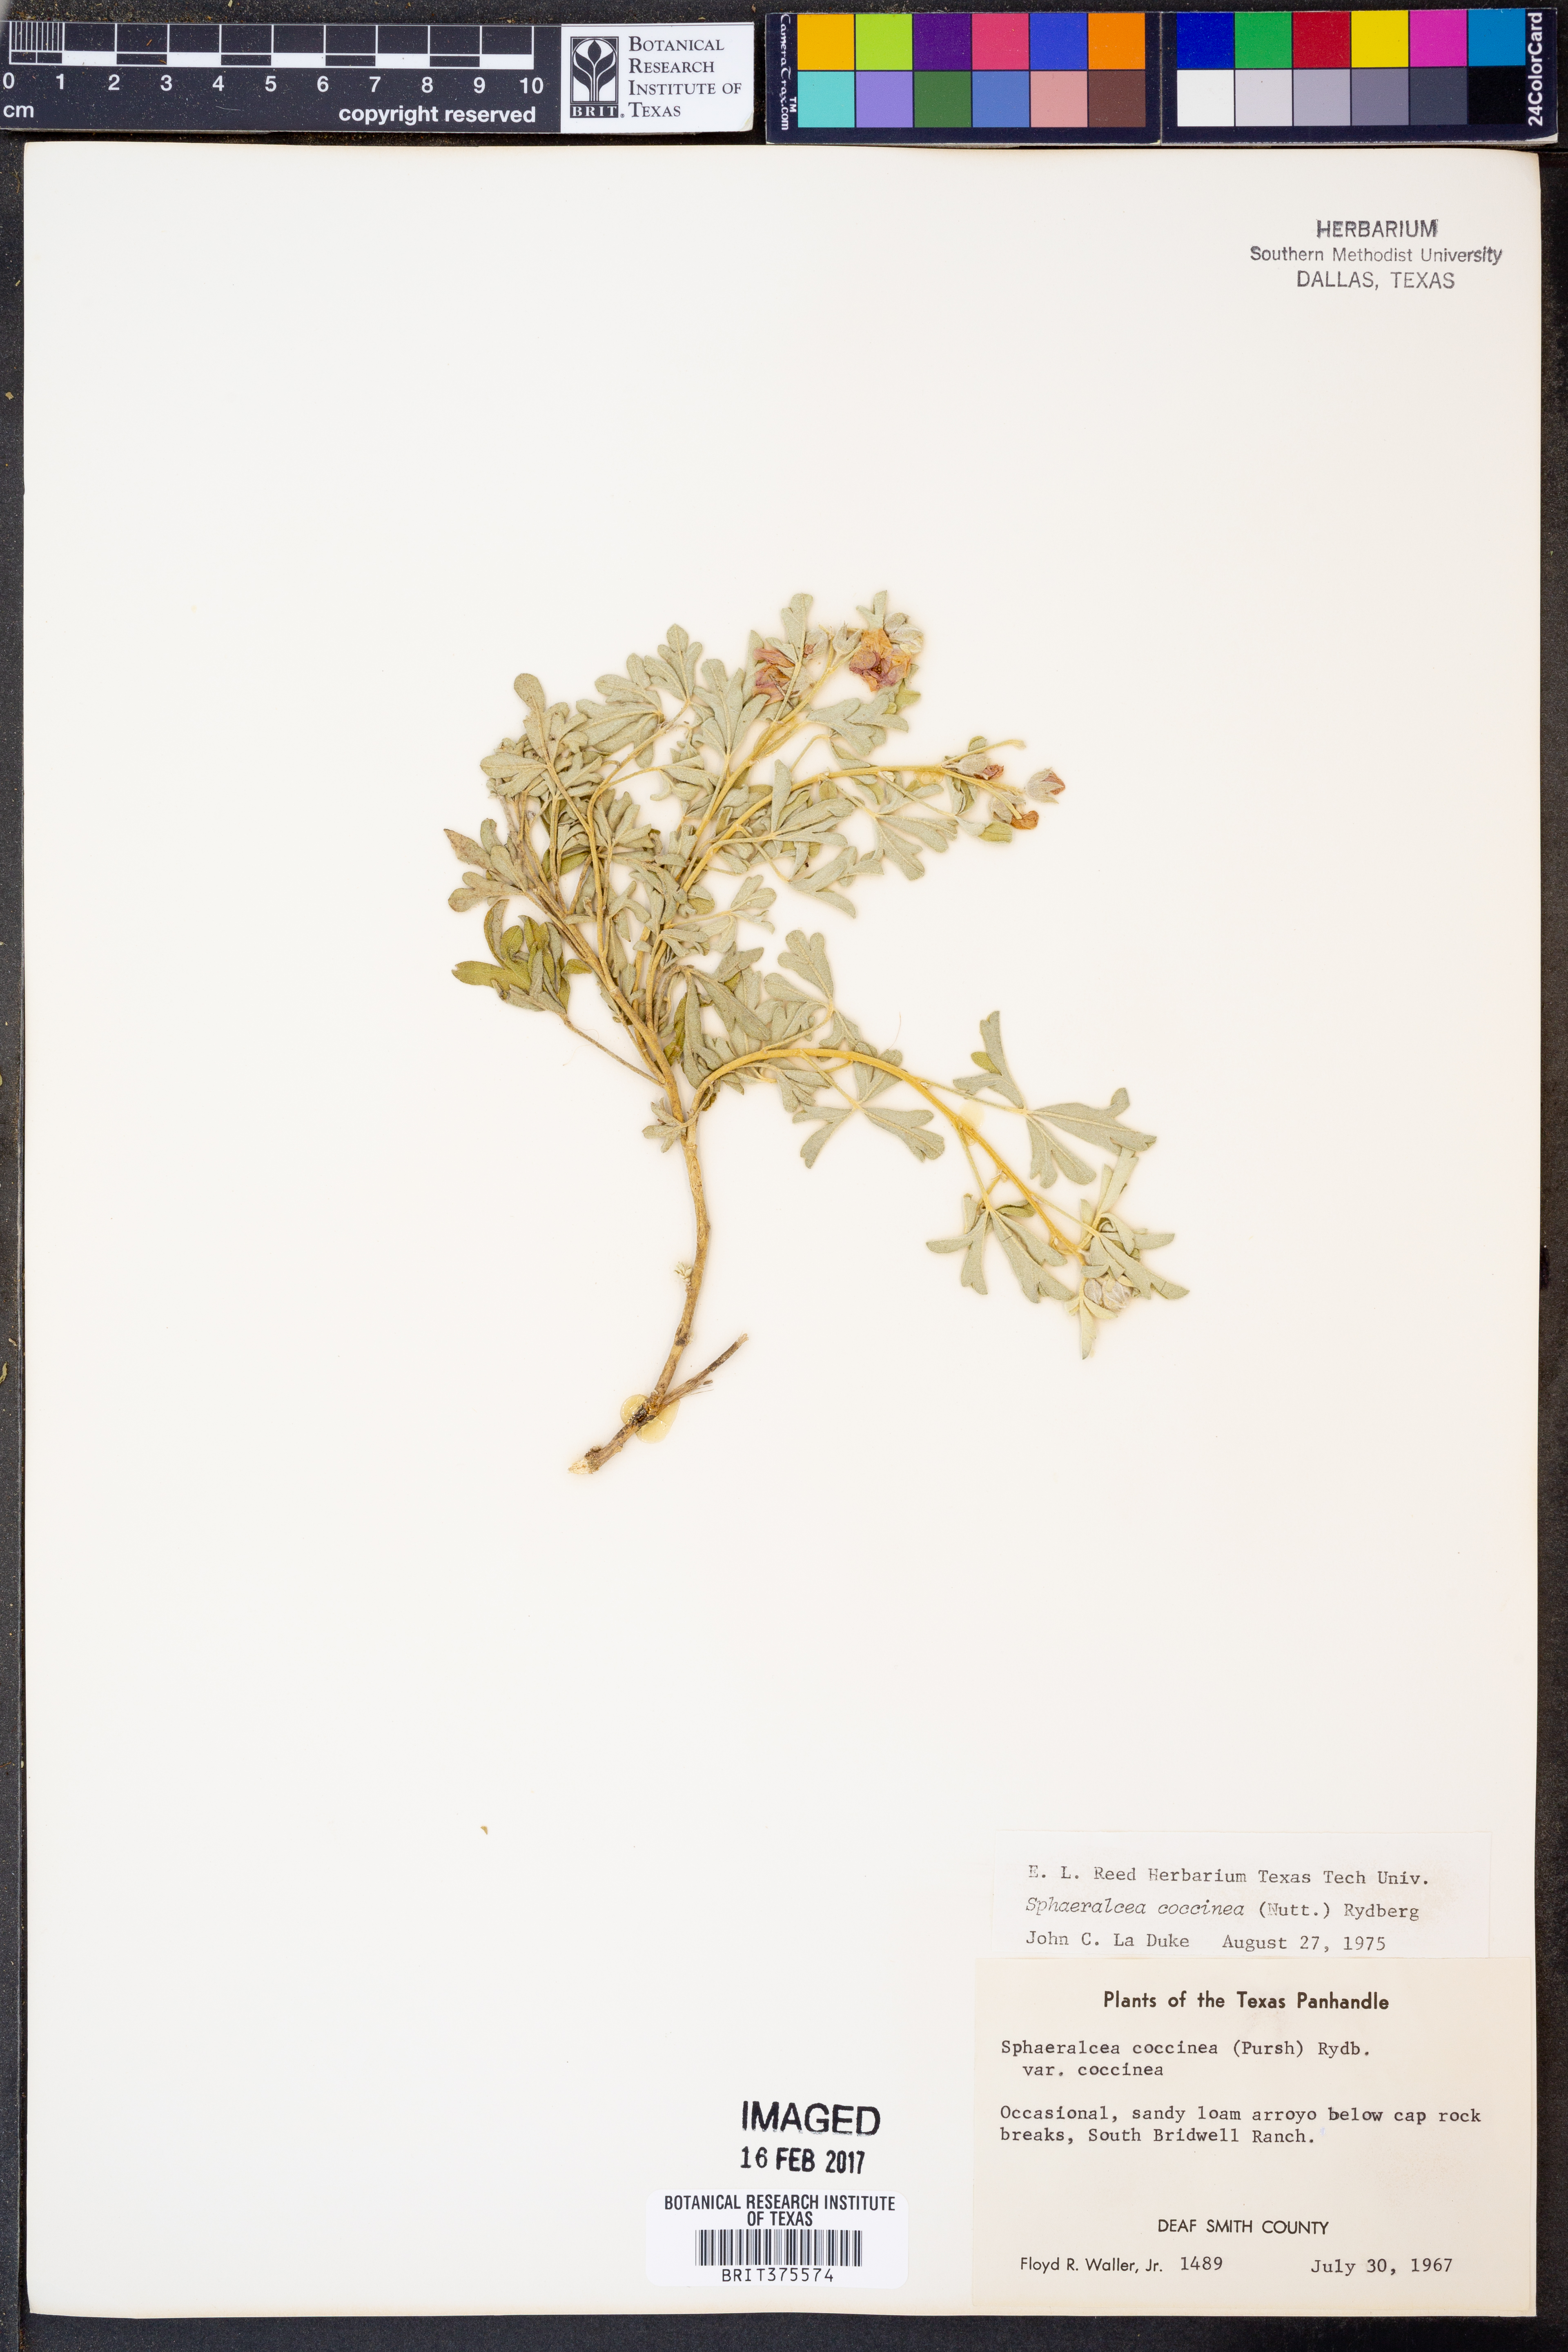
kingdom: Plantae
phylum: Tracheophyta
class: Magnoliopsida
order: Malvales
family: Malvaceae
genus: Sphaeralcea
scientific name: Sphaeralcea coccinea
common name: Moss-rose
